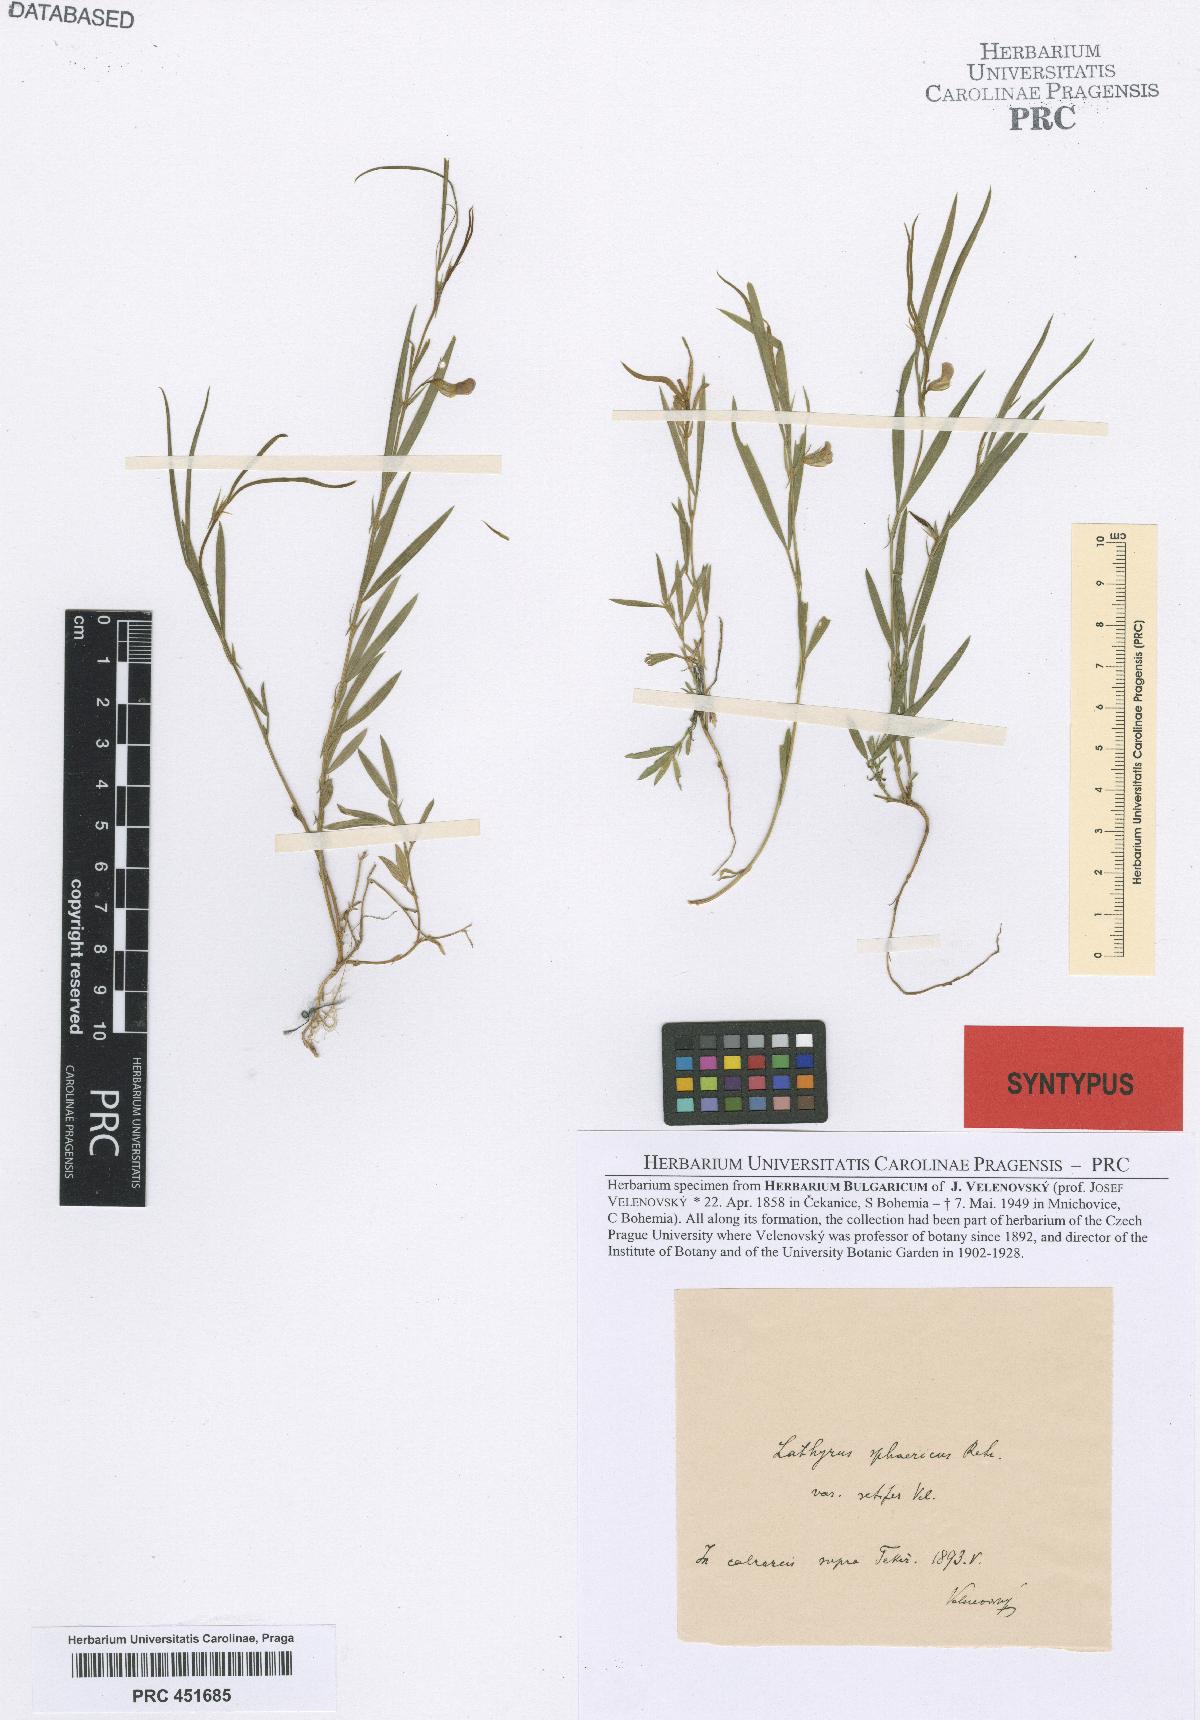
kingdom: Plantae
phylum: Tracheophyta
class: Magnoliopsida
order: Fabales
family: Fabaceae
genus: Lathyrus
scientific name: Lathyrus sphaericus
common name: Grass pea
